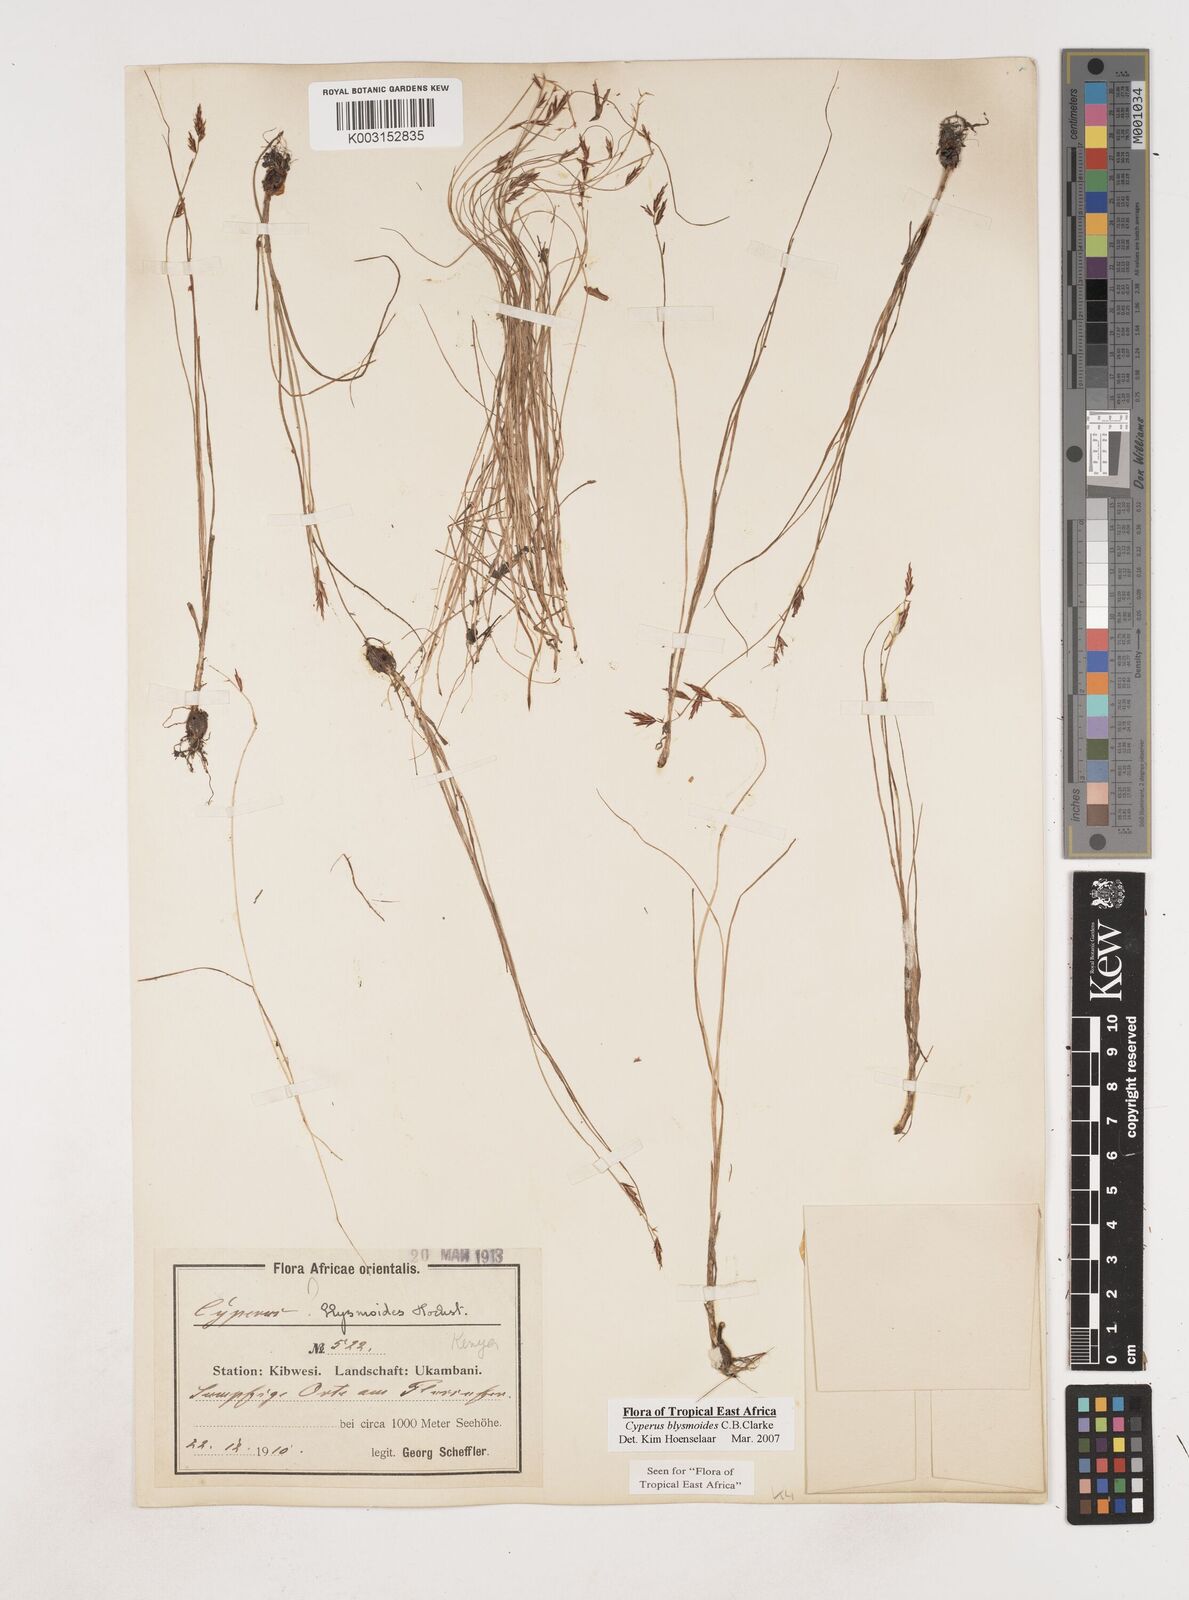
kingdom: Plantae
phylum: Tracheophyta
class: Liliopsida
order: Poales
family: Cyperaceae
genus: Cyperus
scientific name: Cyperus blysmoides
